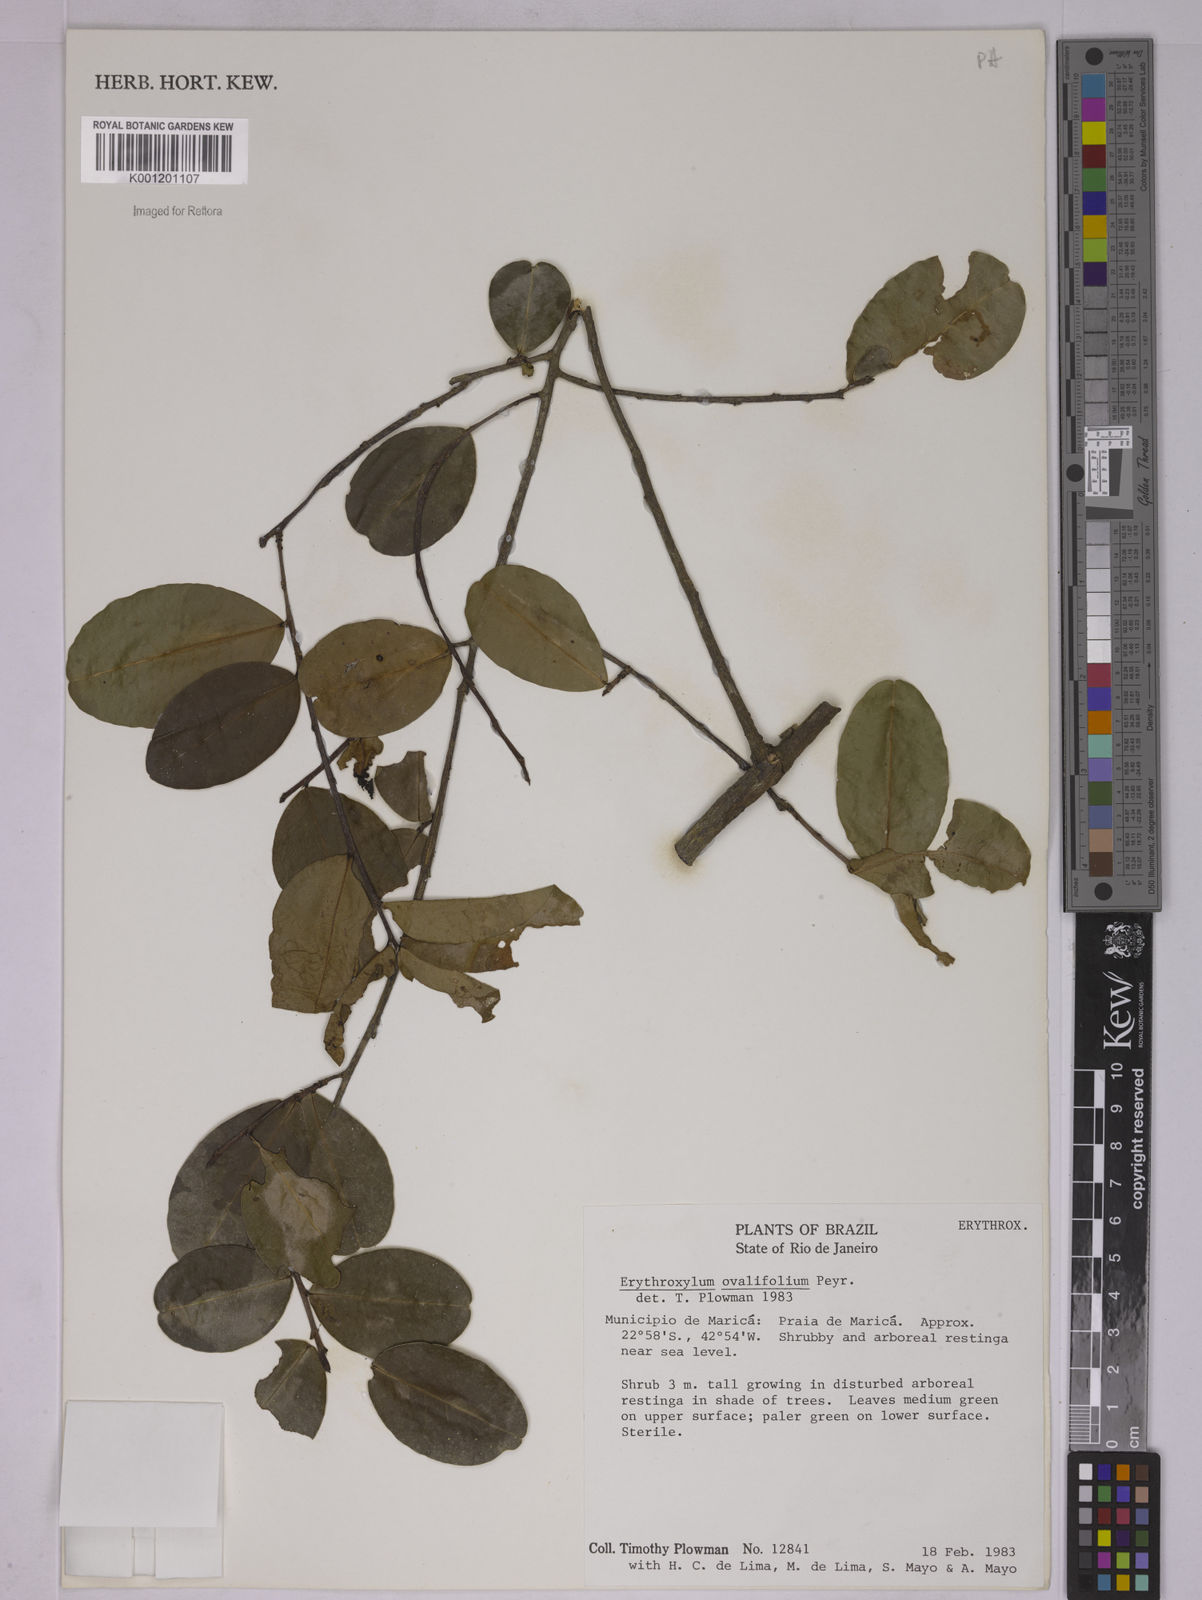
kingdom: Plantae
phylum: Tracheophyta
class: Magnoliopsida
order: Malpighiales
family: Erythroxylaceae
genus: Erythroxylum
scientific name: Erythroxylum ovalifolium
